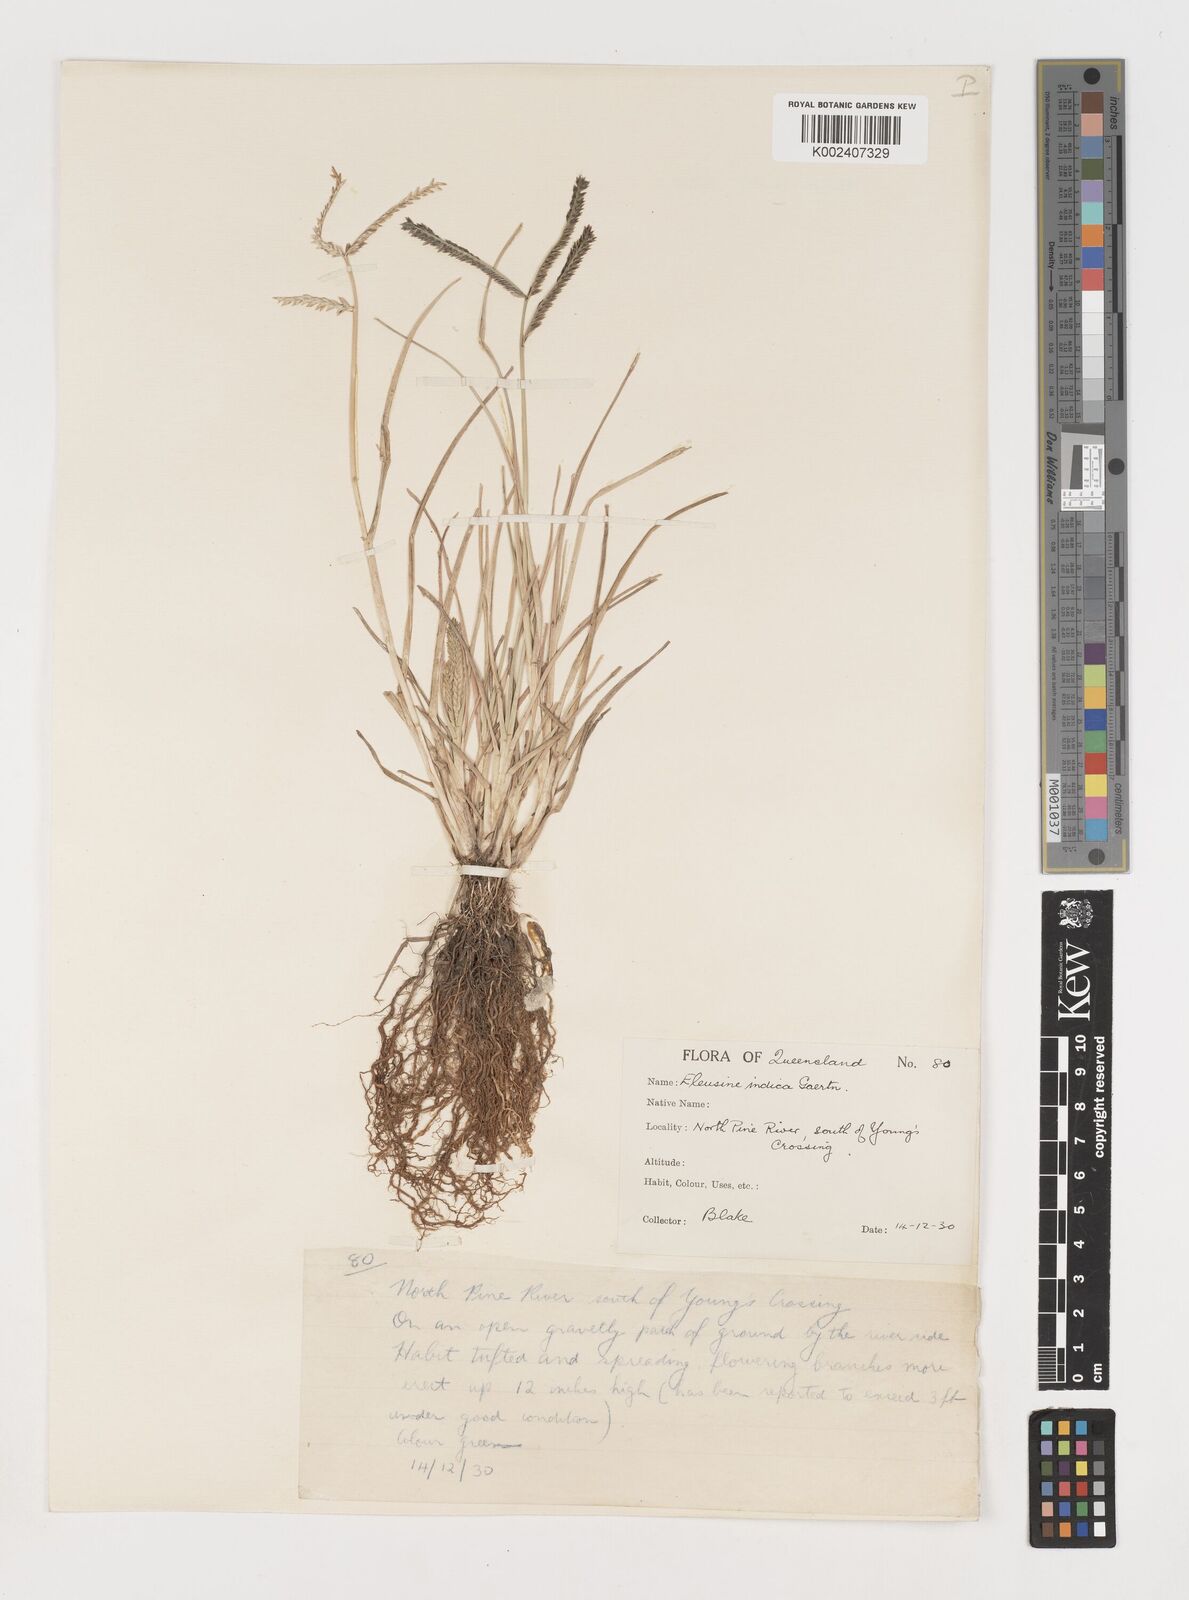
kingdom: Plantae
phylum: Tracheophyta
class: Liliopsida
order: Poales
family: Poaceae
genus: Eleusine
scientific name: Eleusine indica
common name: Yard-grass
